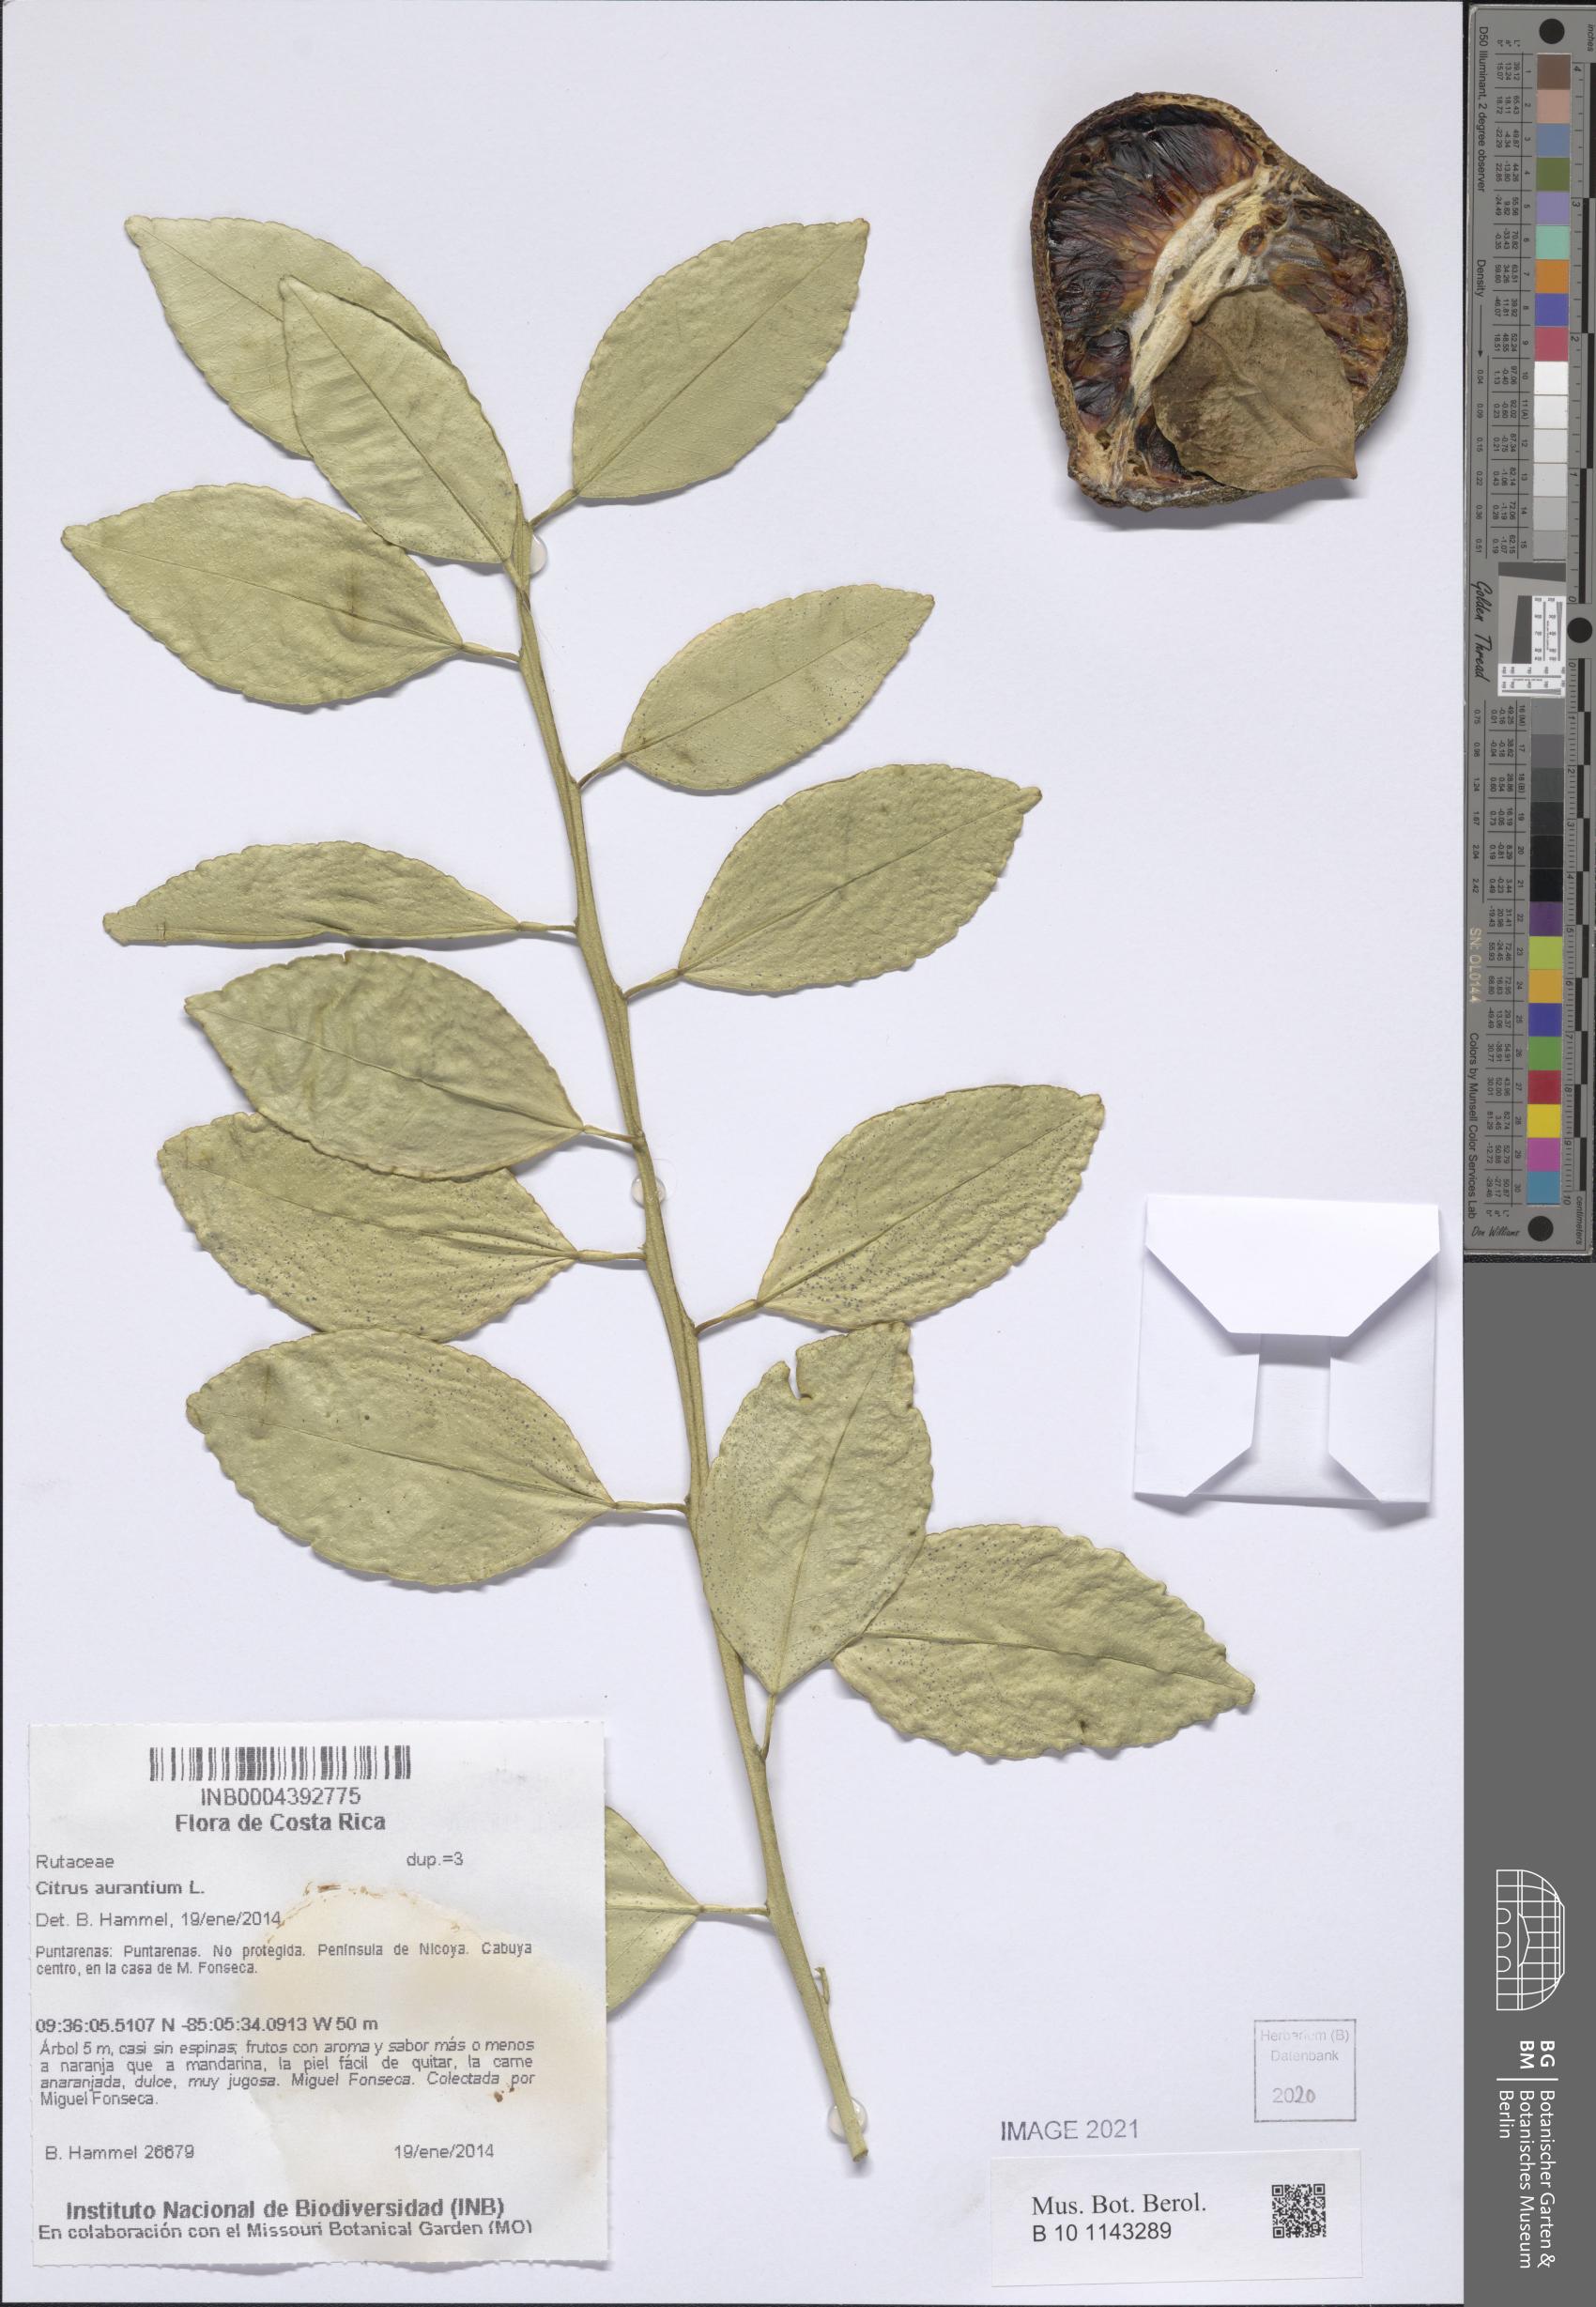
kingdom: Plantae
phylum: Tracheophyta
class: Magnoliopsida
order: Sapindales
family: Rutaceae
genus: Citrus
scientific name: Citrus aurantium
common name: Sour orange
